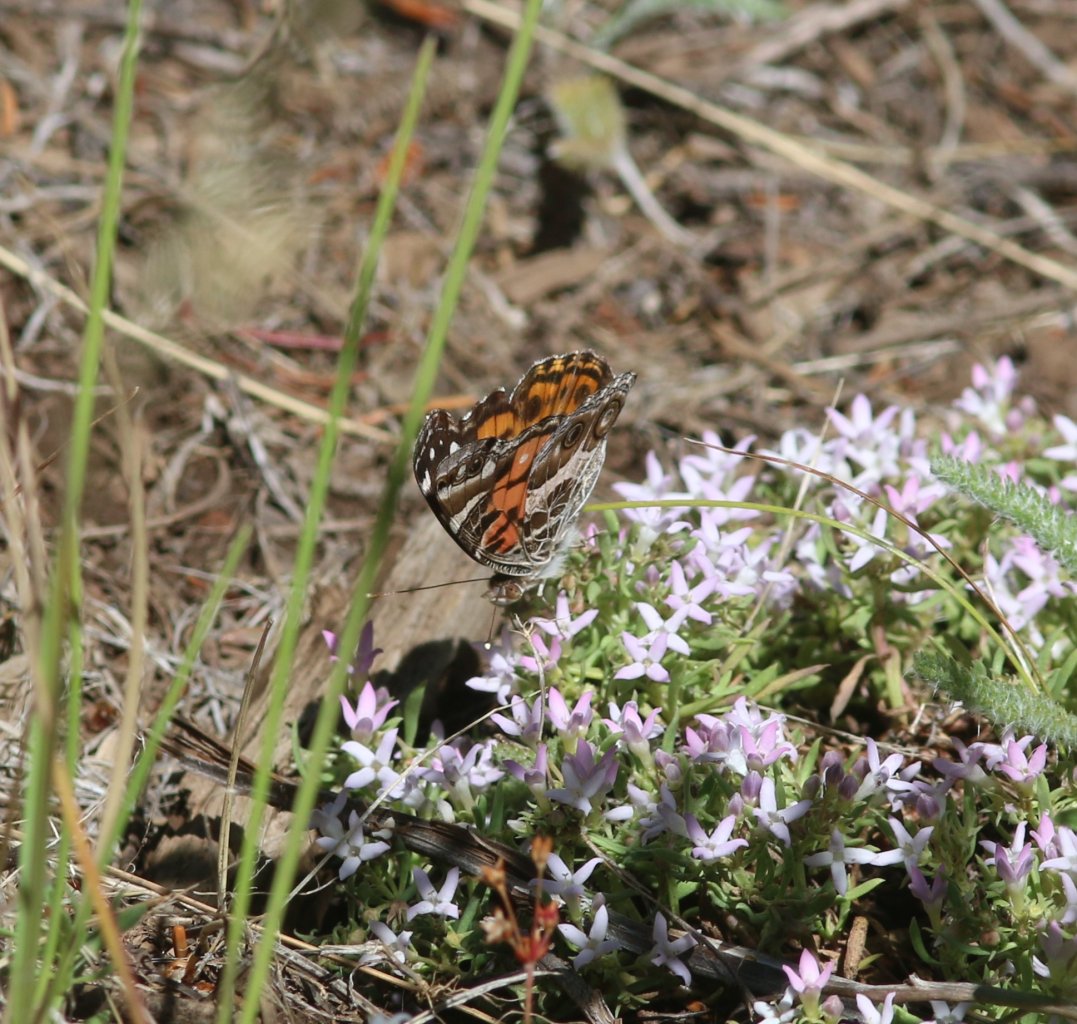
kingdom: Animalia
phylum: Arthropoda
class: Insecta
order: Lepidoptera
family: Nymphalidae
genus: Vanessa
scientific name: Vanessa virginiensis
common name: American Lady
